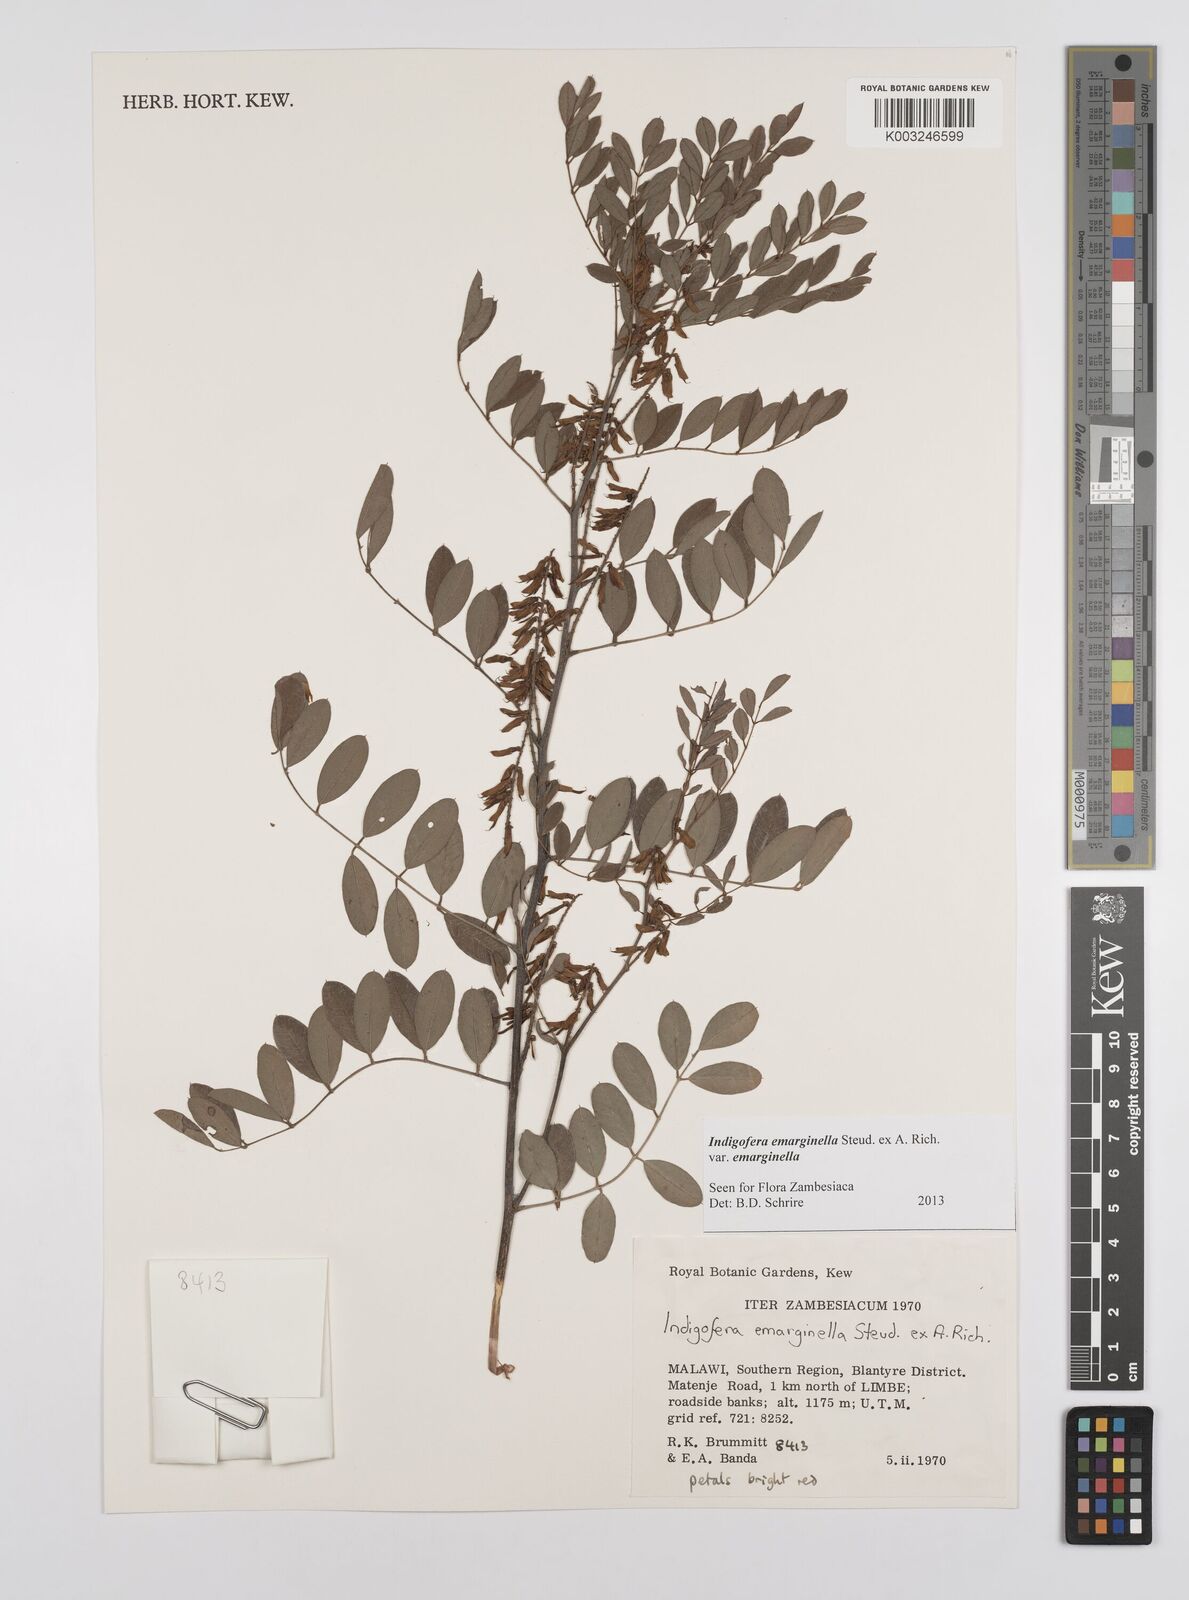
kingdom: Plantae
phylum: Tracheophyta
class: Magnoliopsida
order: Fabales
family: Fabaceae
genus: Indigofera
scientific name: Indigofera emarginella
